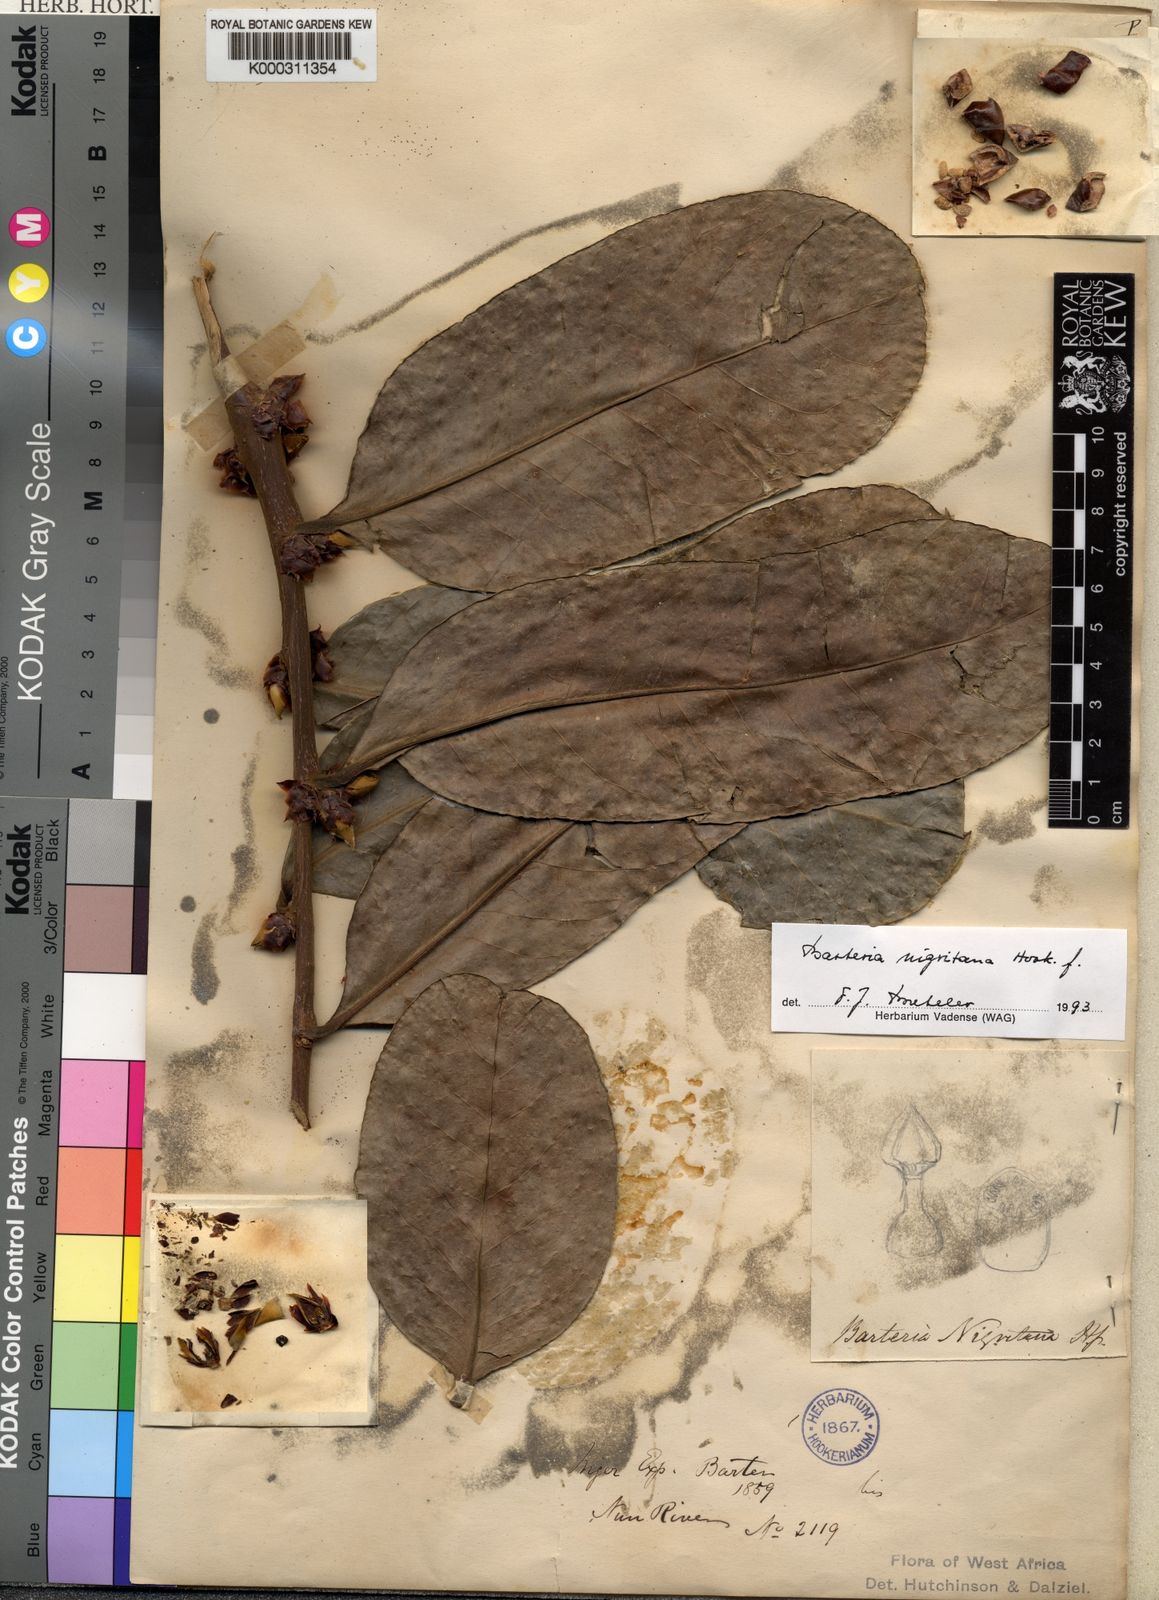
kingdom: Plantae
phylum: Tracheophyta
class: Magnoliopsida
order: Malpighiales
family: Passifloraceae
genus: Barteria
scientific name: Barteria nigritana
